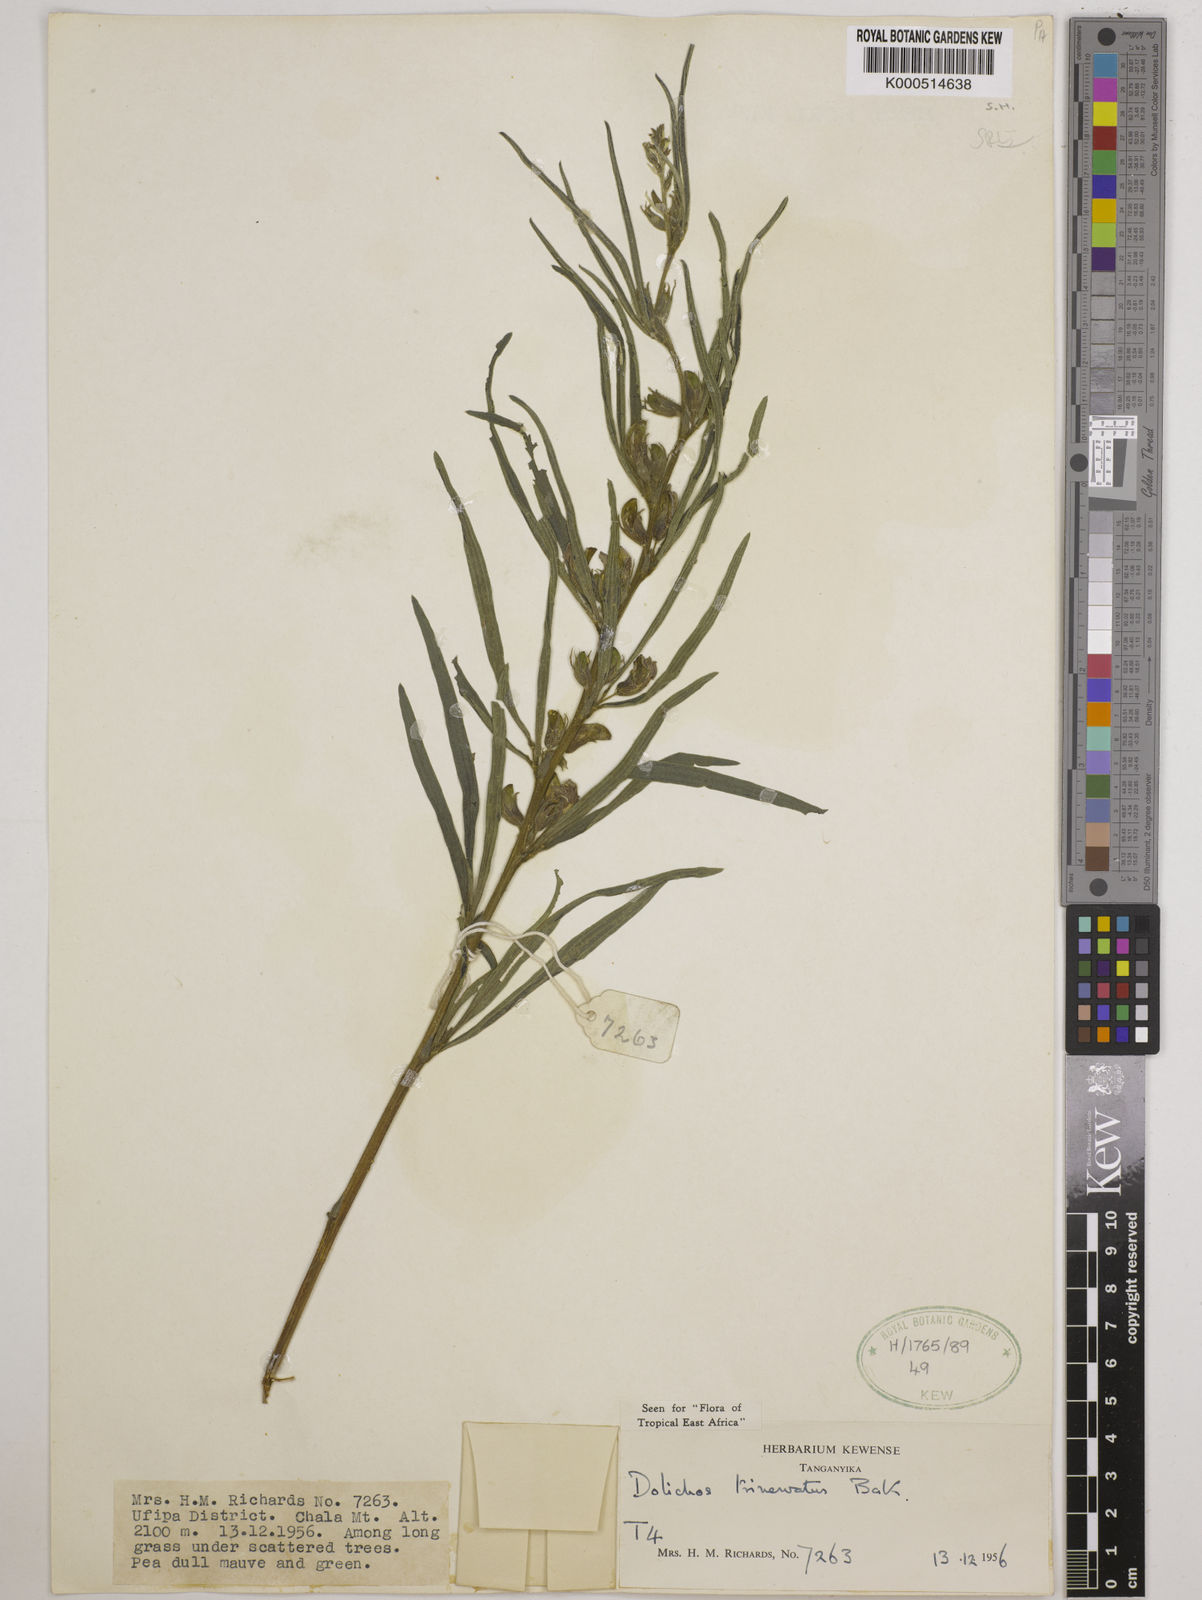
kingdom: Plantae
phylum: Tracheophyta
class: Magnoliopsida
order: Fabales
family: Fabaceae
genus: Dolichos
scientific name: Dolichos trinervatus
